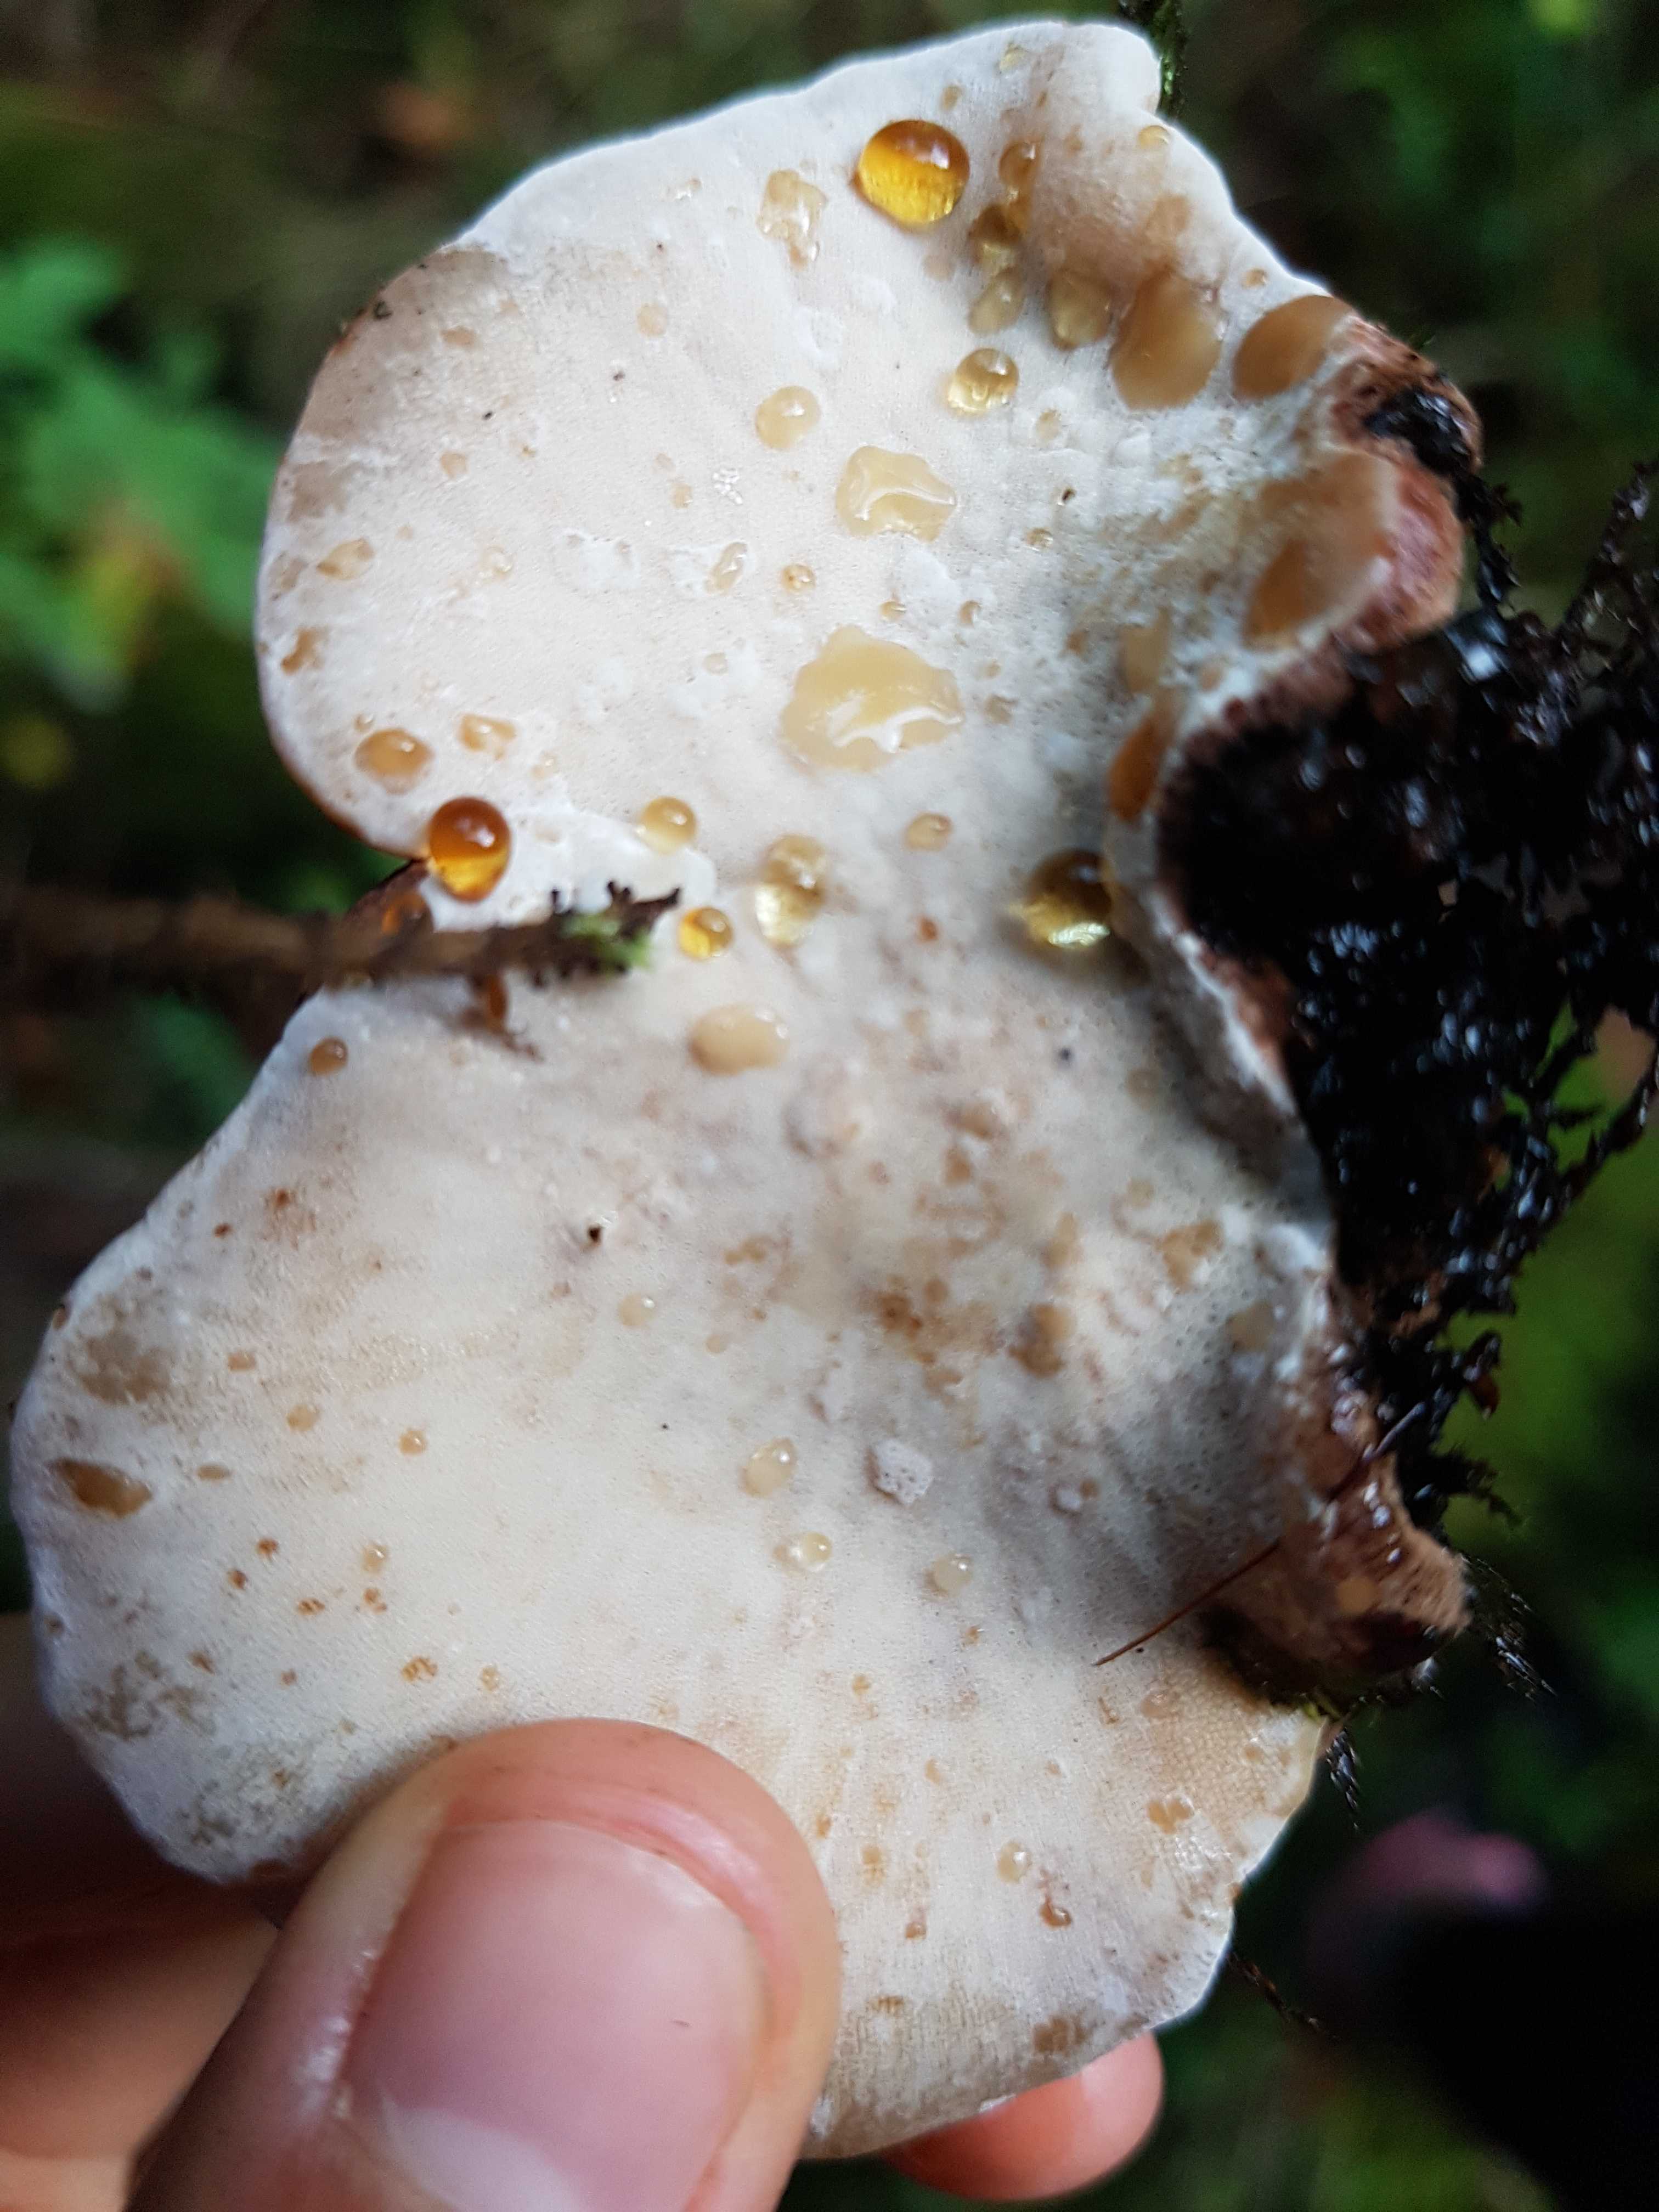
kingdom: Fungi
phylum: Basidiomycota
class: Agaricomycetes
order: Polyporales
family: Ischnodermataceae
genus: Ischnoderma
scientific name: Ischnoderma resinosum
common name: løv-tjæreporesvamp
